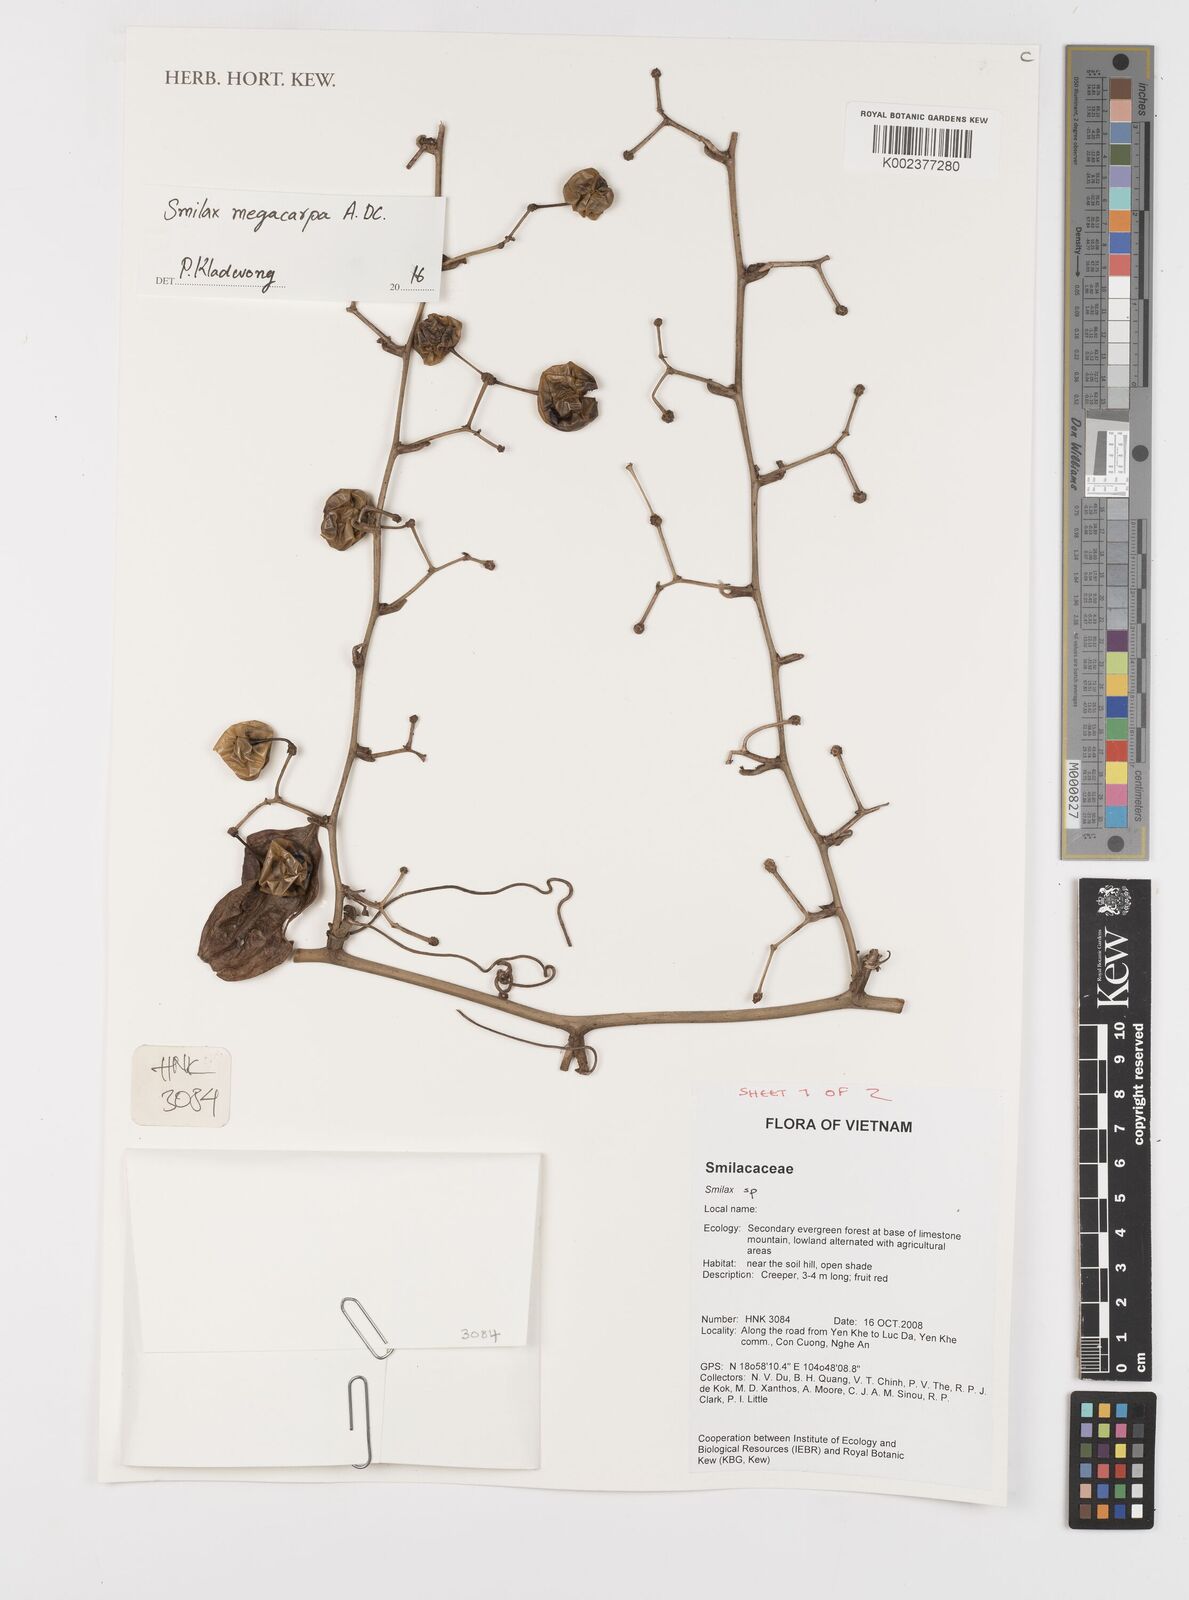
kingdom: Plantae
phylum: Tracheophyta
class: Liliopsida
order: Liliales
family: Smilacaceae
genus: Smilax
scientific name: Smilax megacarpa
